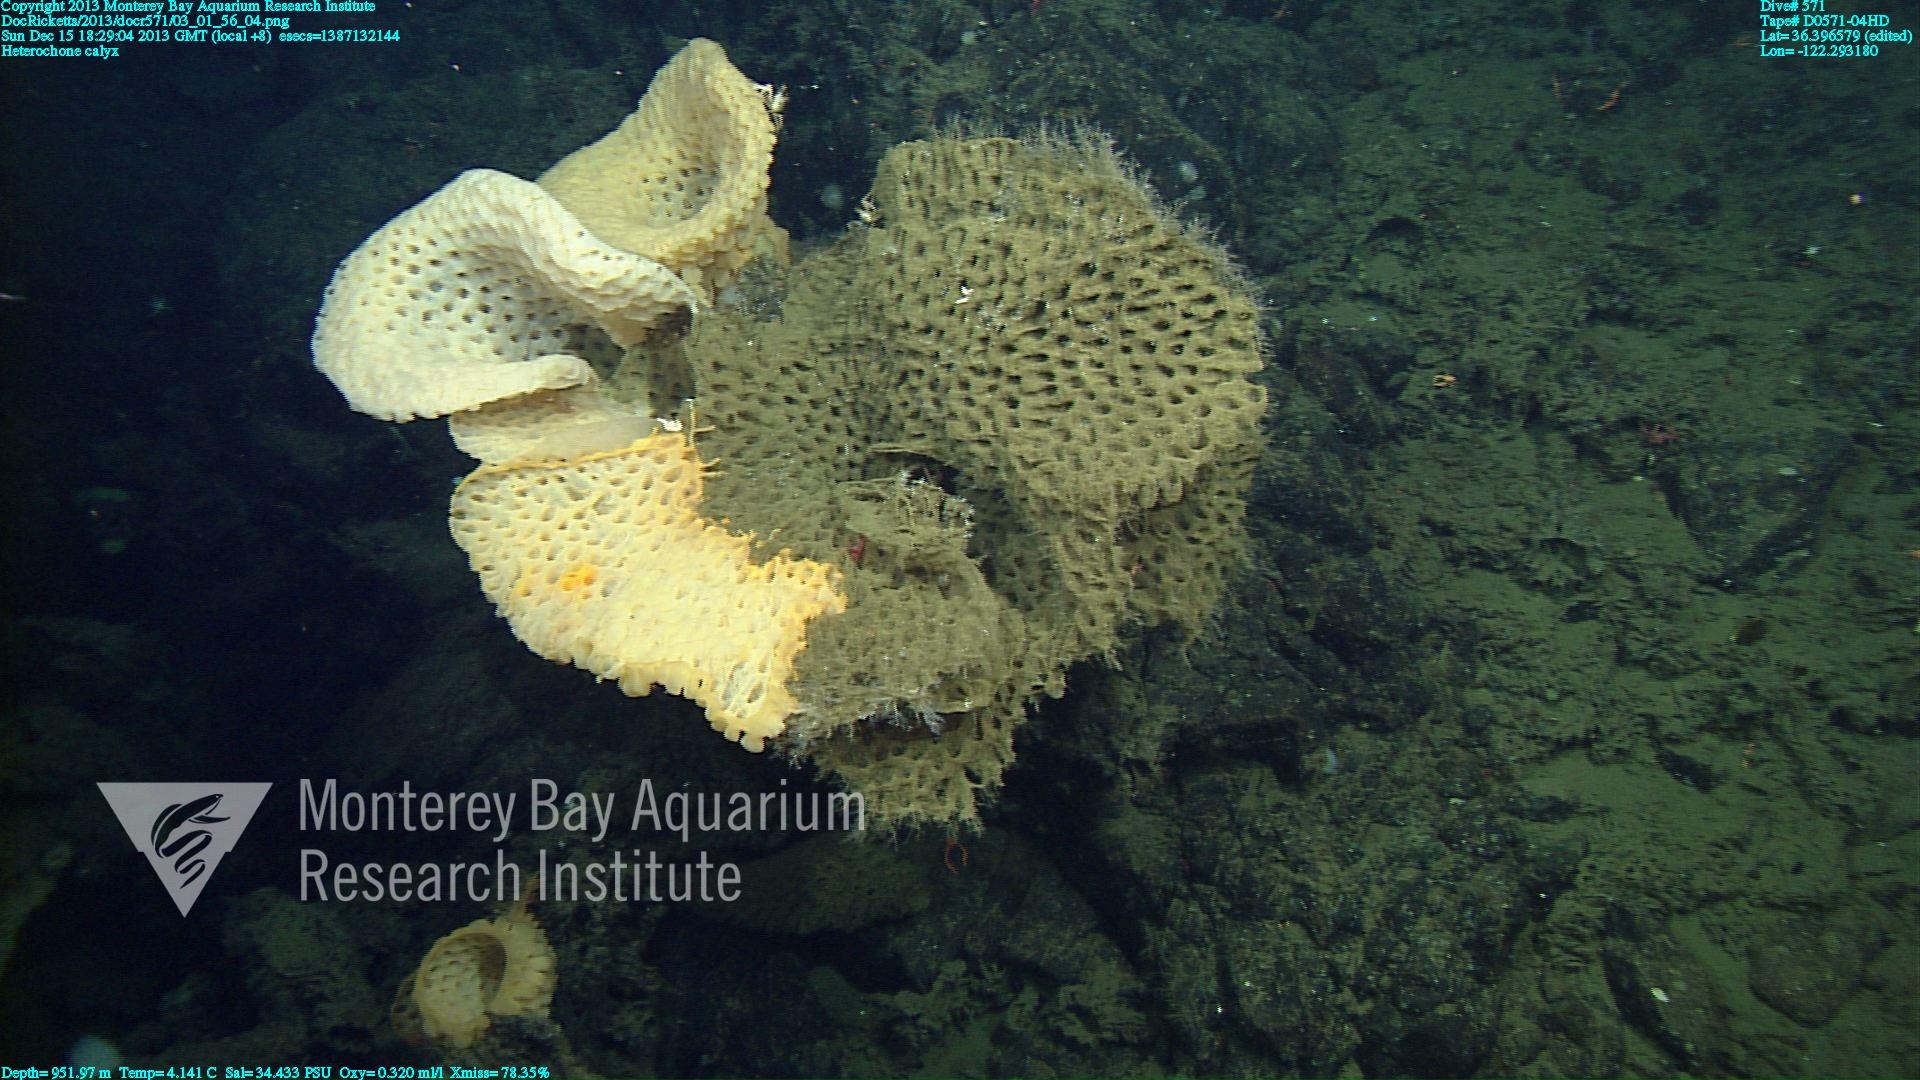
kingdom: Animalia
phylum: Porifera
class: Hexactinellida
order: Sceptrulophora
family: Aphrocallistidae
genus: Heterochone
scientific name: Heterochone calyx
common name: Fingered goblet glass sponge
